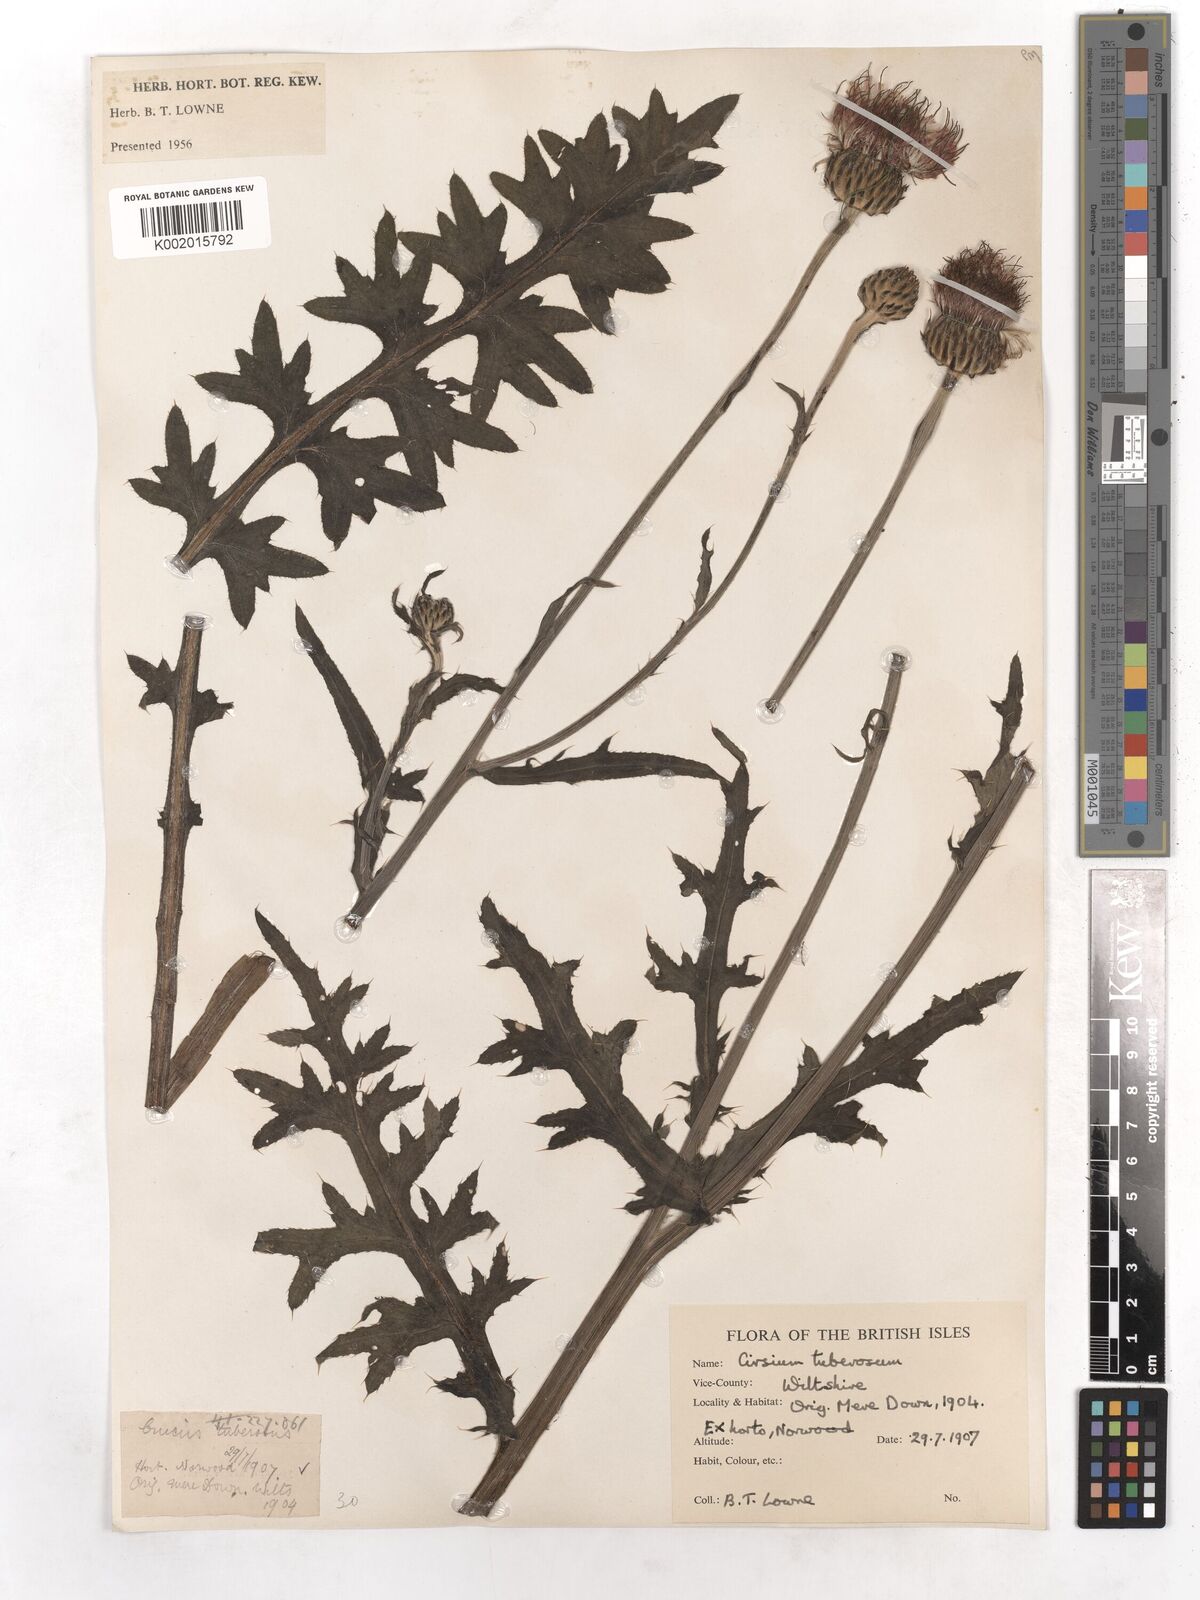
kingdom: Plantae
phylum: Tracheophyta
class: Magnoliopsida
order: Asterales
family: Asteraceae
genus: Cirsium
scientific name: Cirsium tuberosum
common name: Tuberous thistle
